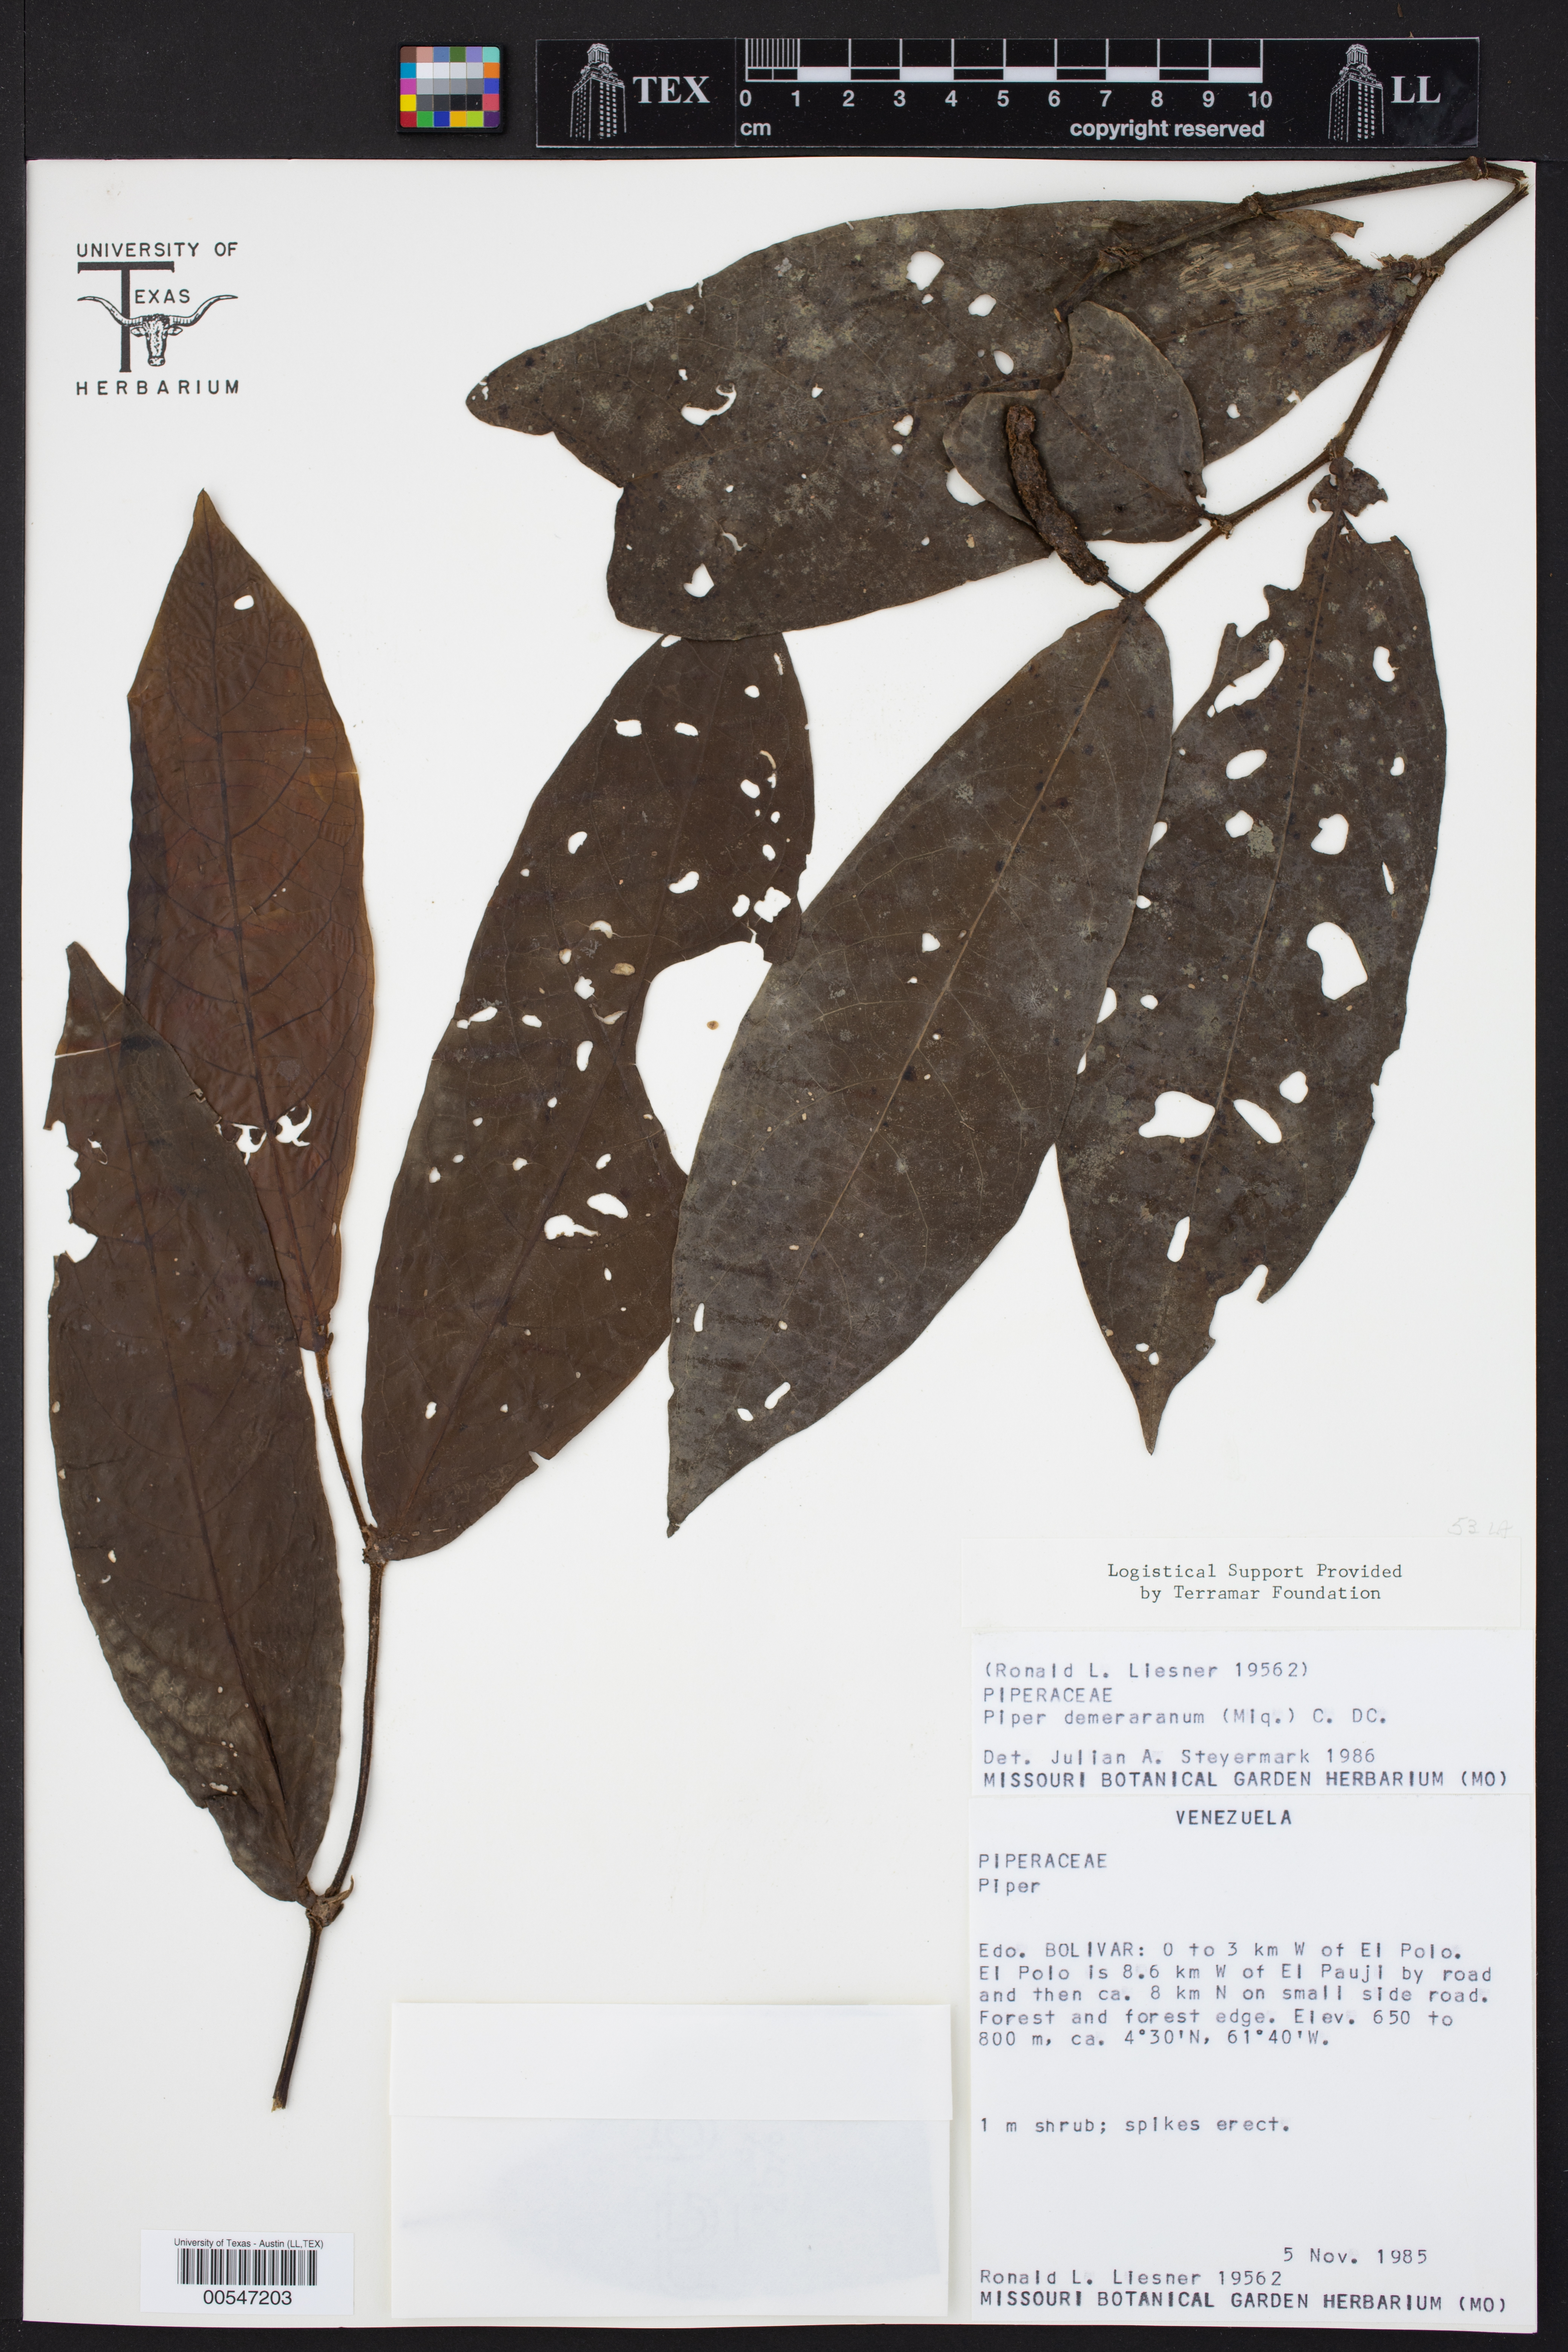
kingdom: Plantae
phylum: Tracheophyta
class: Magnoliopsida
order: Piperales
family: Piperaceae
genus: Piper
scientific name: Piper demeraranum
